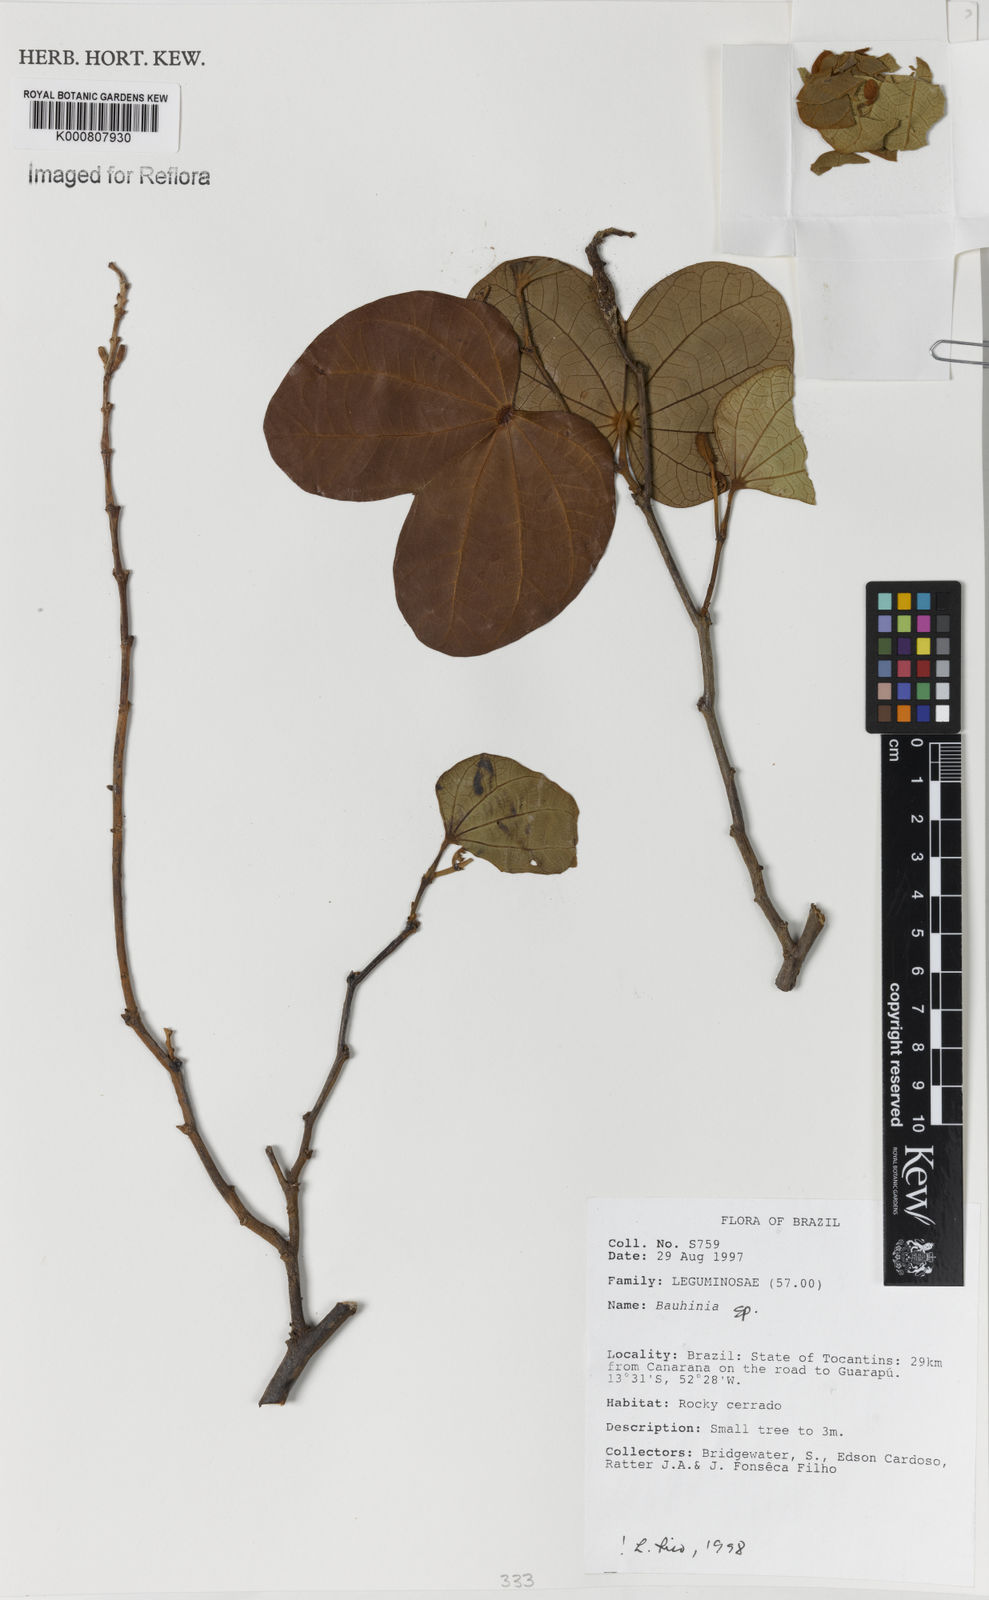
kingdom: Plantae
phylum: Tracheophyta
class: Magnoliopsida
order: Fabales
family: Fabaceae
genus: Bauhinia
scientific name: Bauhinia
